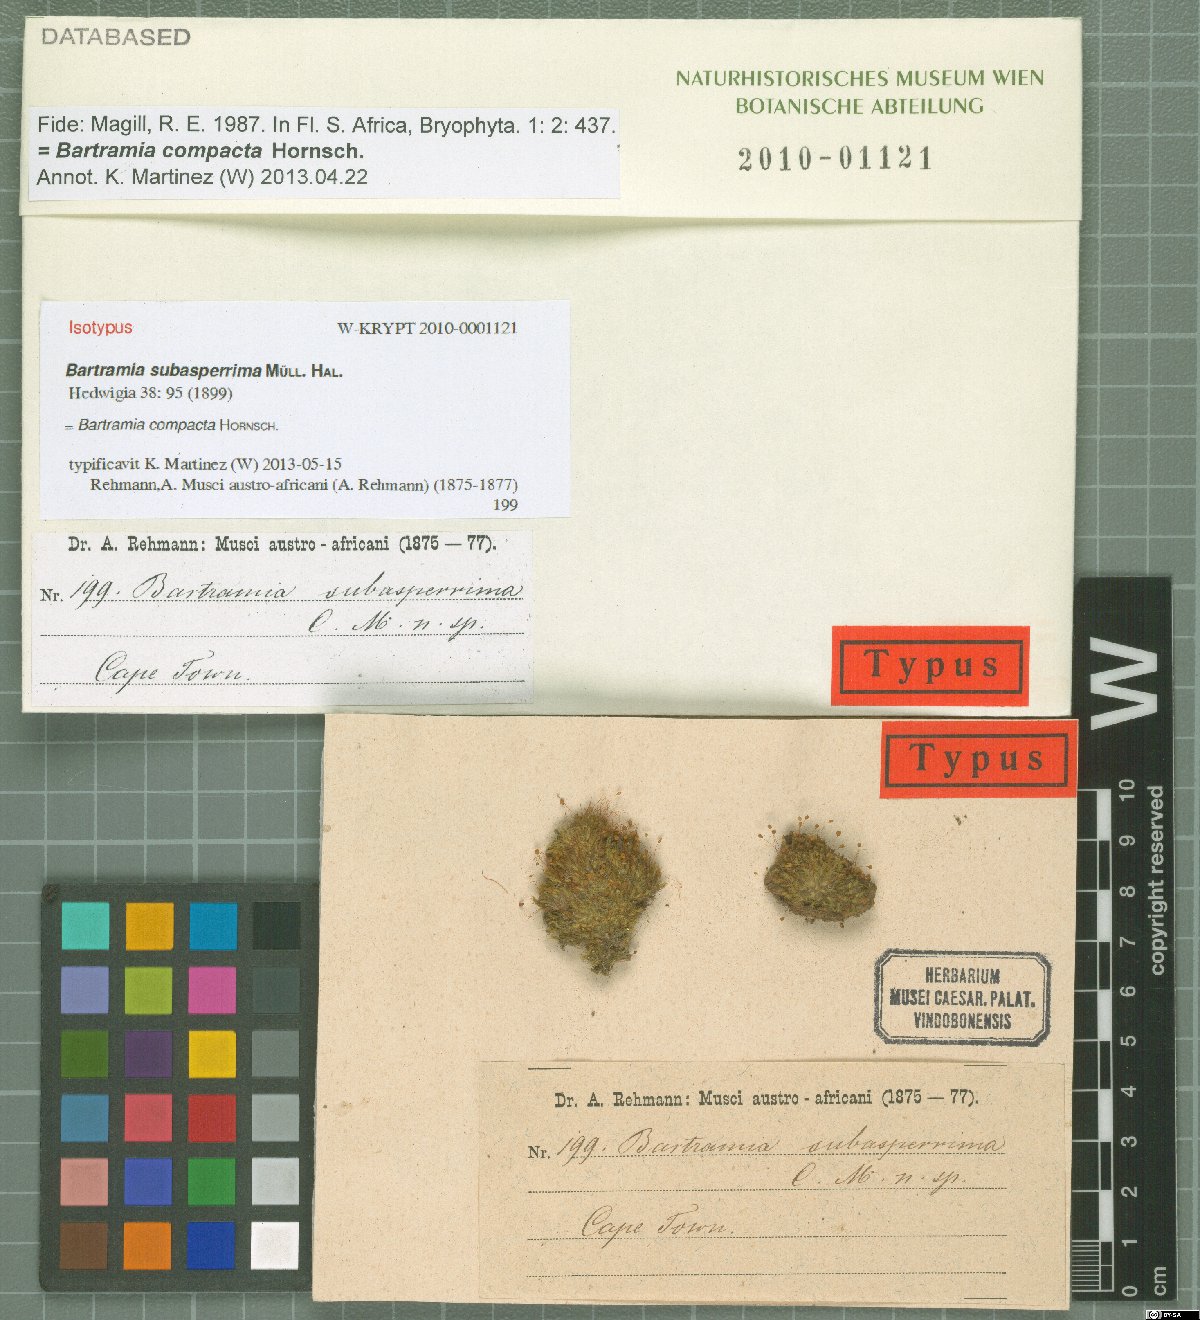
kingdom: Plantae
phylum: Bryophyta
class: Bryopsida
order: Bartramiales
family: Bartramiaceae
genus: Bartramia
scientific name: Bartramia compacta
